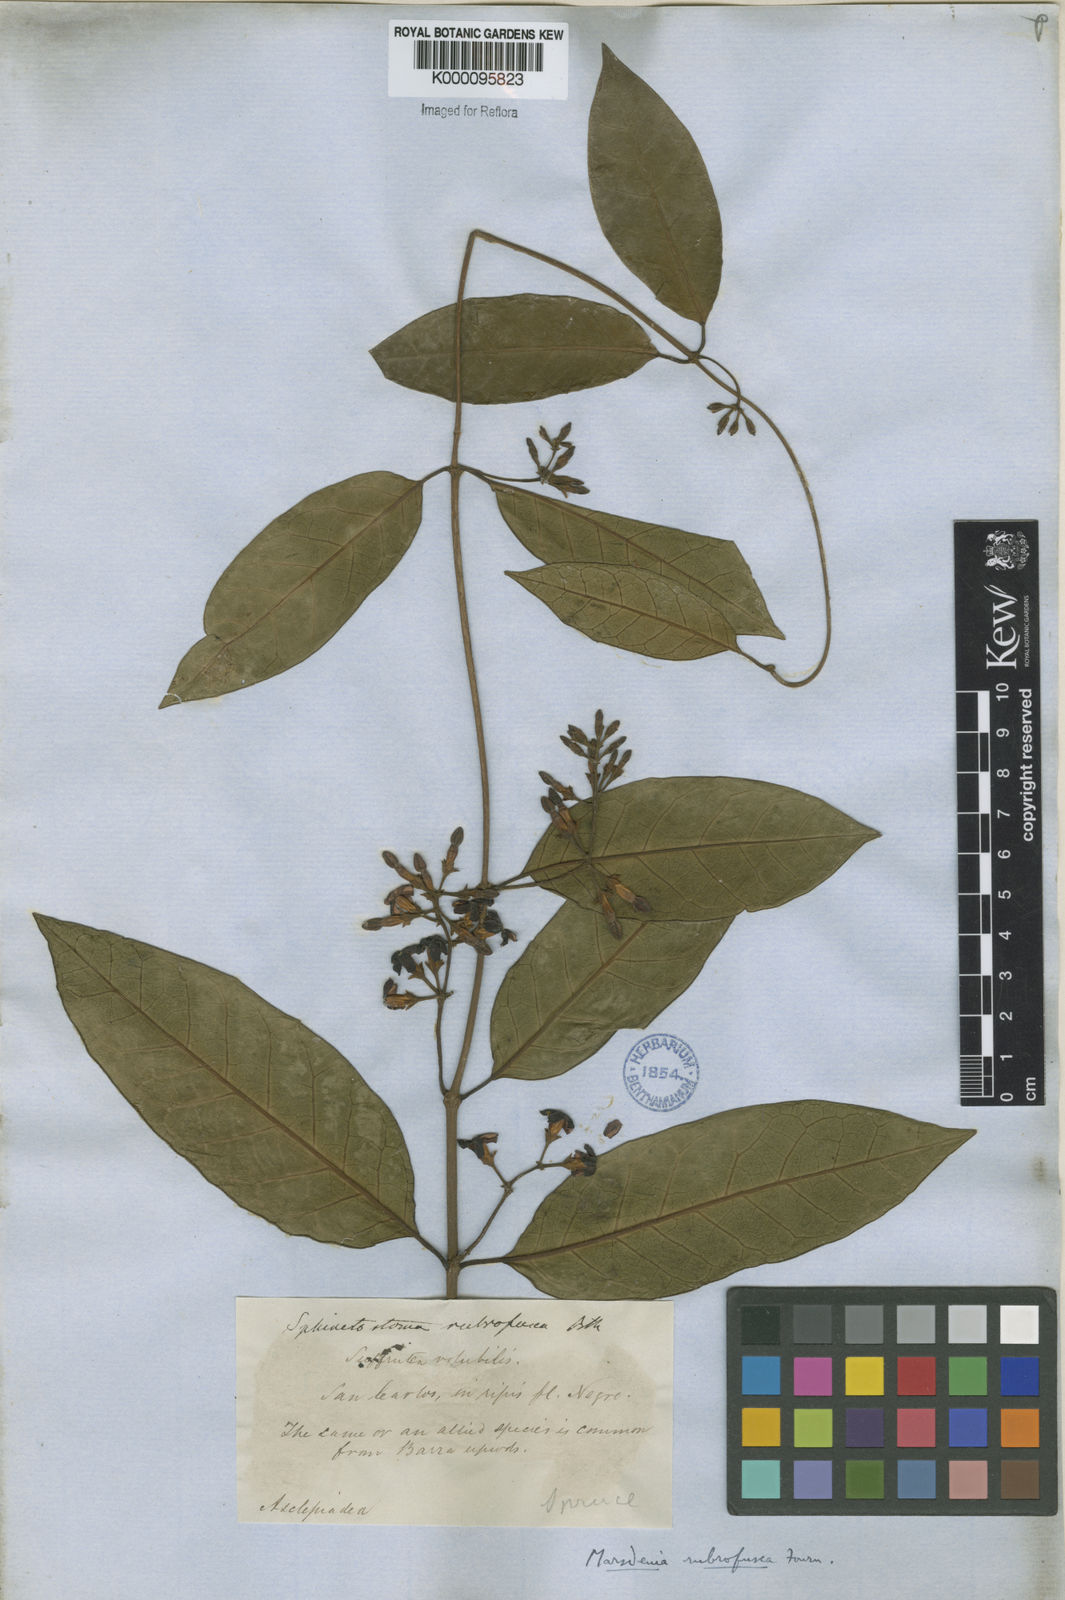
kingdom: Plantae
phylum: Tracheophyta
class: Magnoliopsida
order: Gentianales
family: Apocynaceae
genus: Ruehssia
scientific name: Ruehssia rubrofusca
